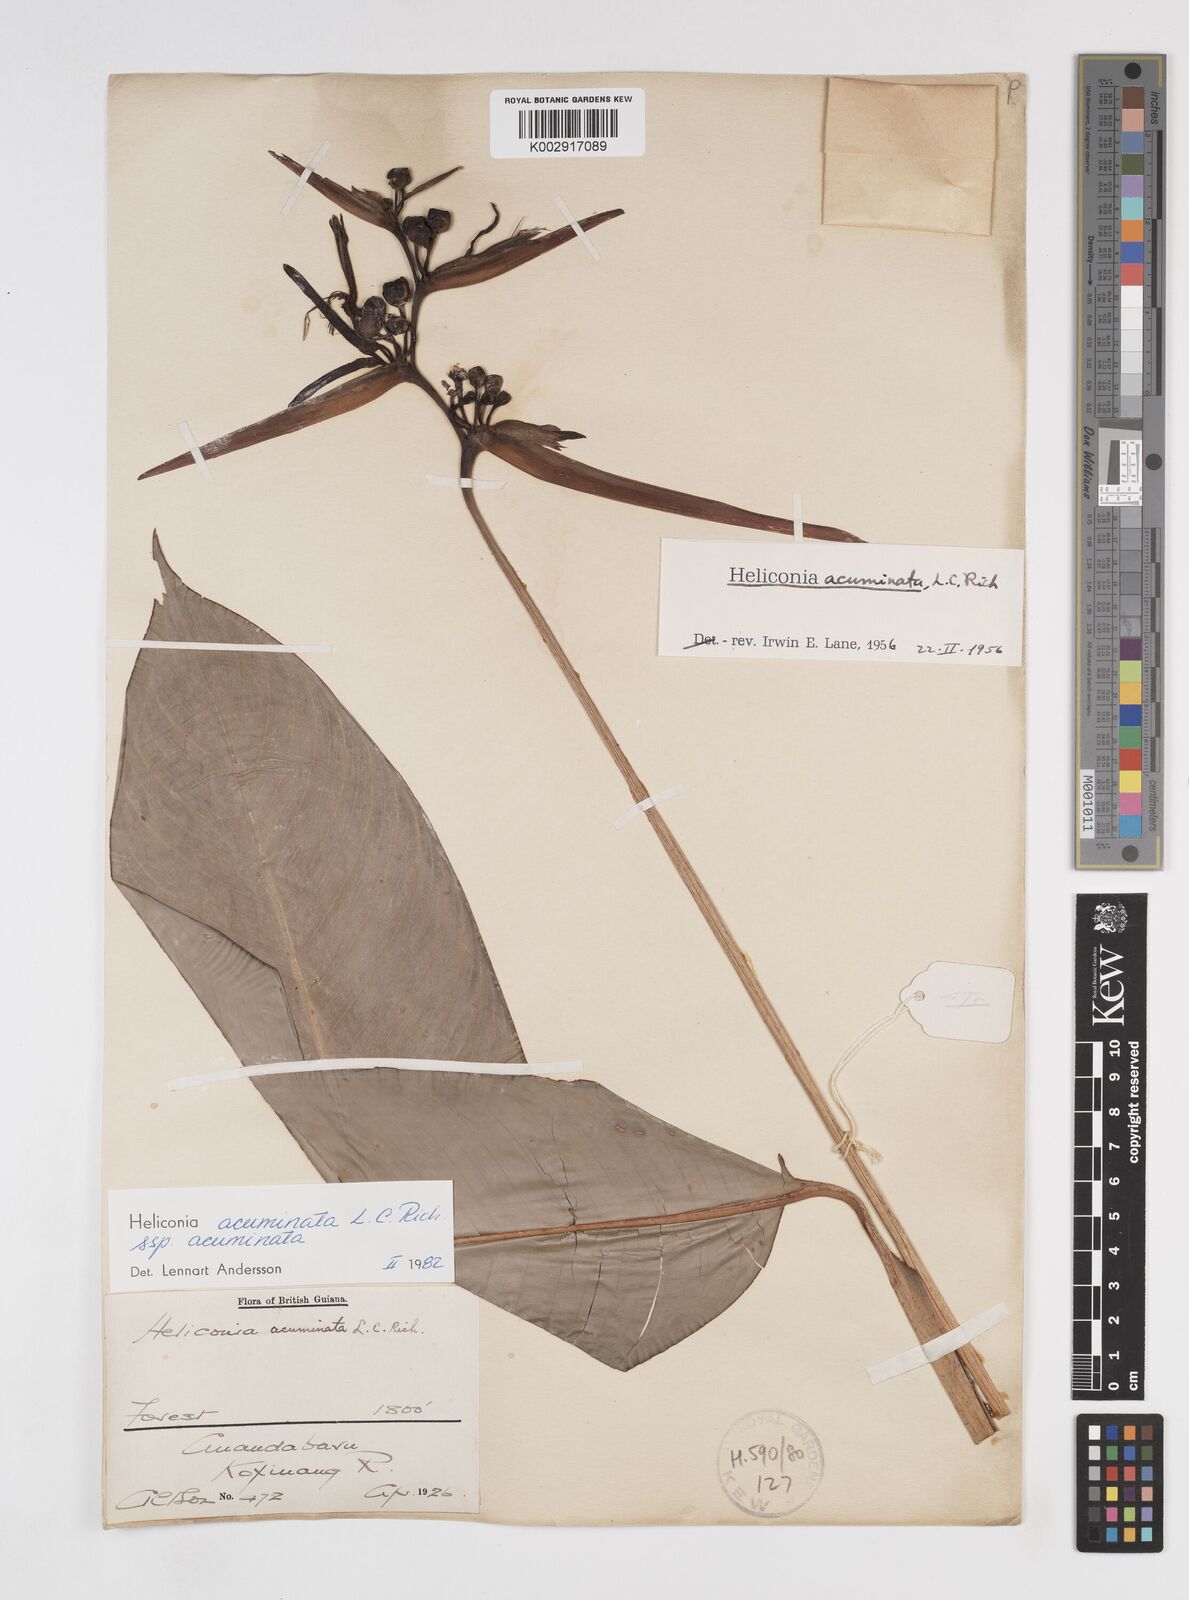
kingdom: Plantae
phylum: Tracheophyta
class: Liliopsida
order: Zingiberales
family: Heliconiaceae
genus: Heliconia
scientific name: Heliconia acuminata
